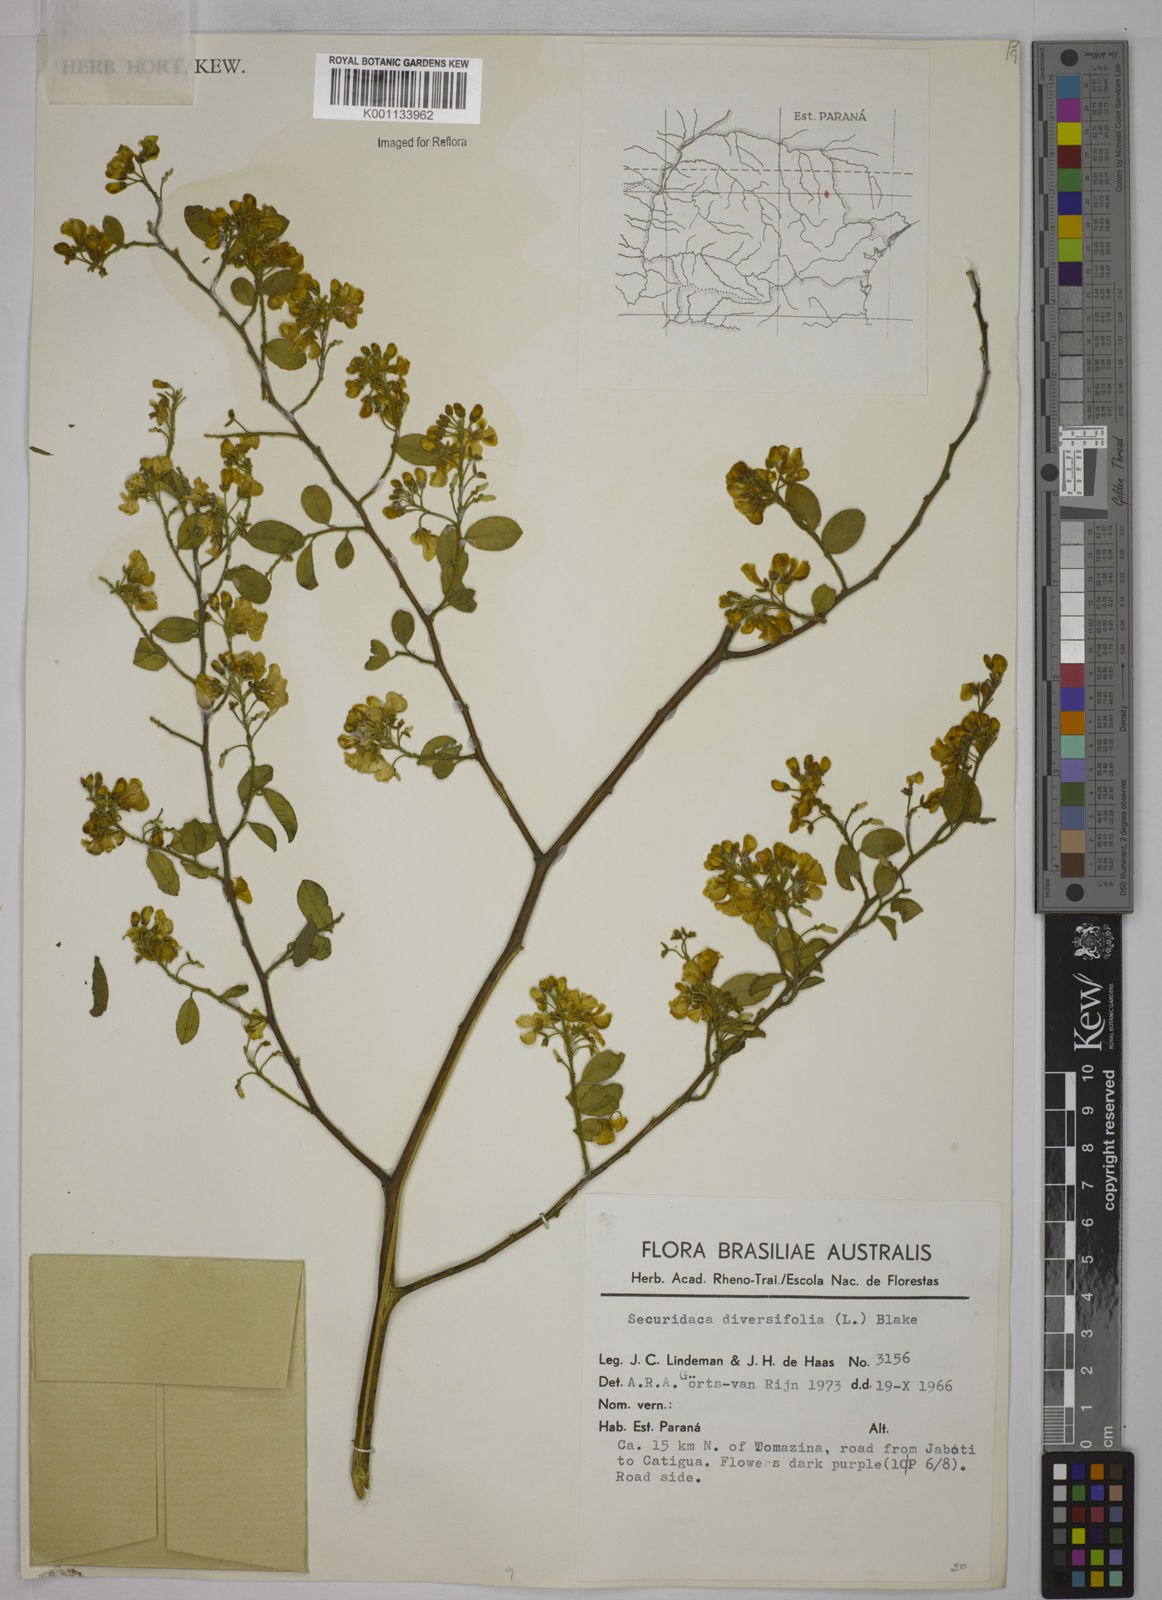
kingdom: Plantae
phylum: Tracheophyta
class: Magnoliopsida
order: Fabales
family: Polygalaceae
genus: Securidaca
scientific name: Securidaca diversifolia
